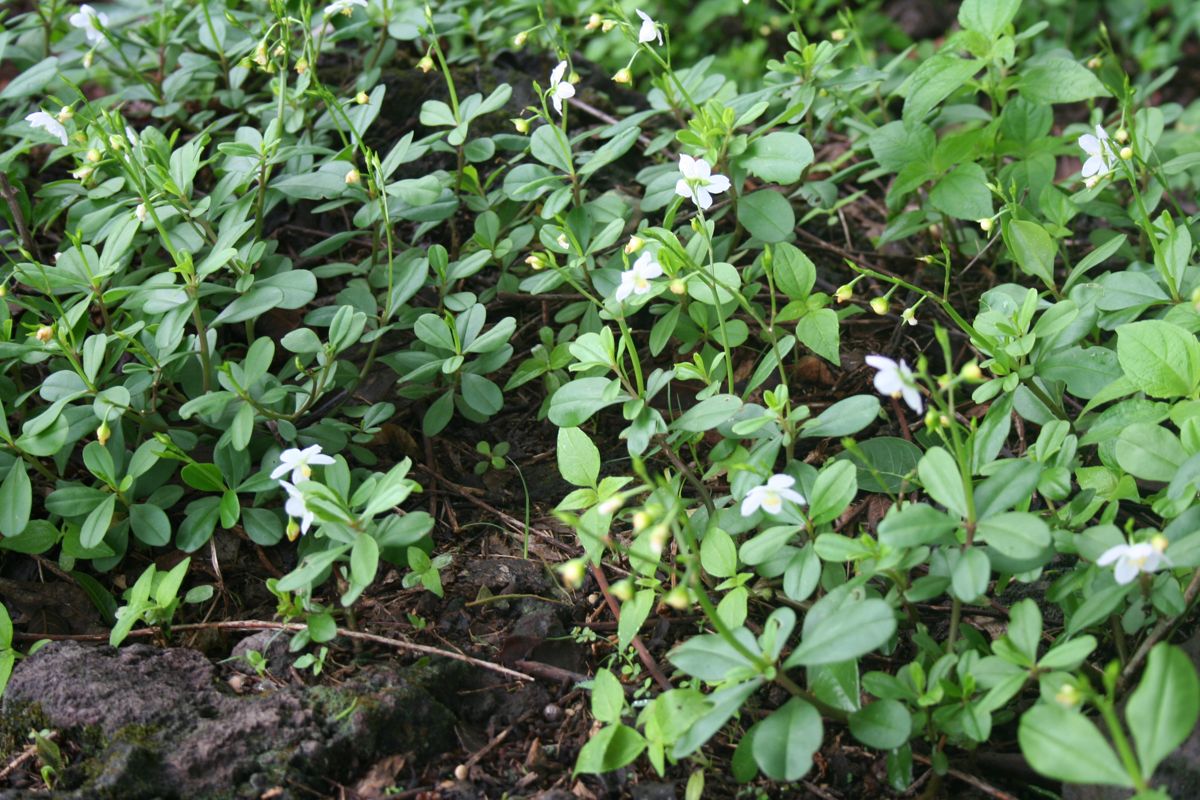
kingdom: Plantae
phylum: Tracheophyta
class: Magnoliopsida
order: Caryophyllales
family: Talinaceae
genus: Talinum
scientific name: Talinum fruticosum
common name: Verdolaga-francesa
